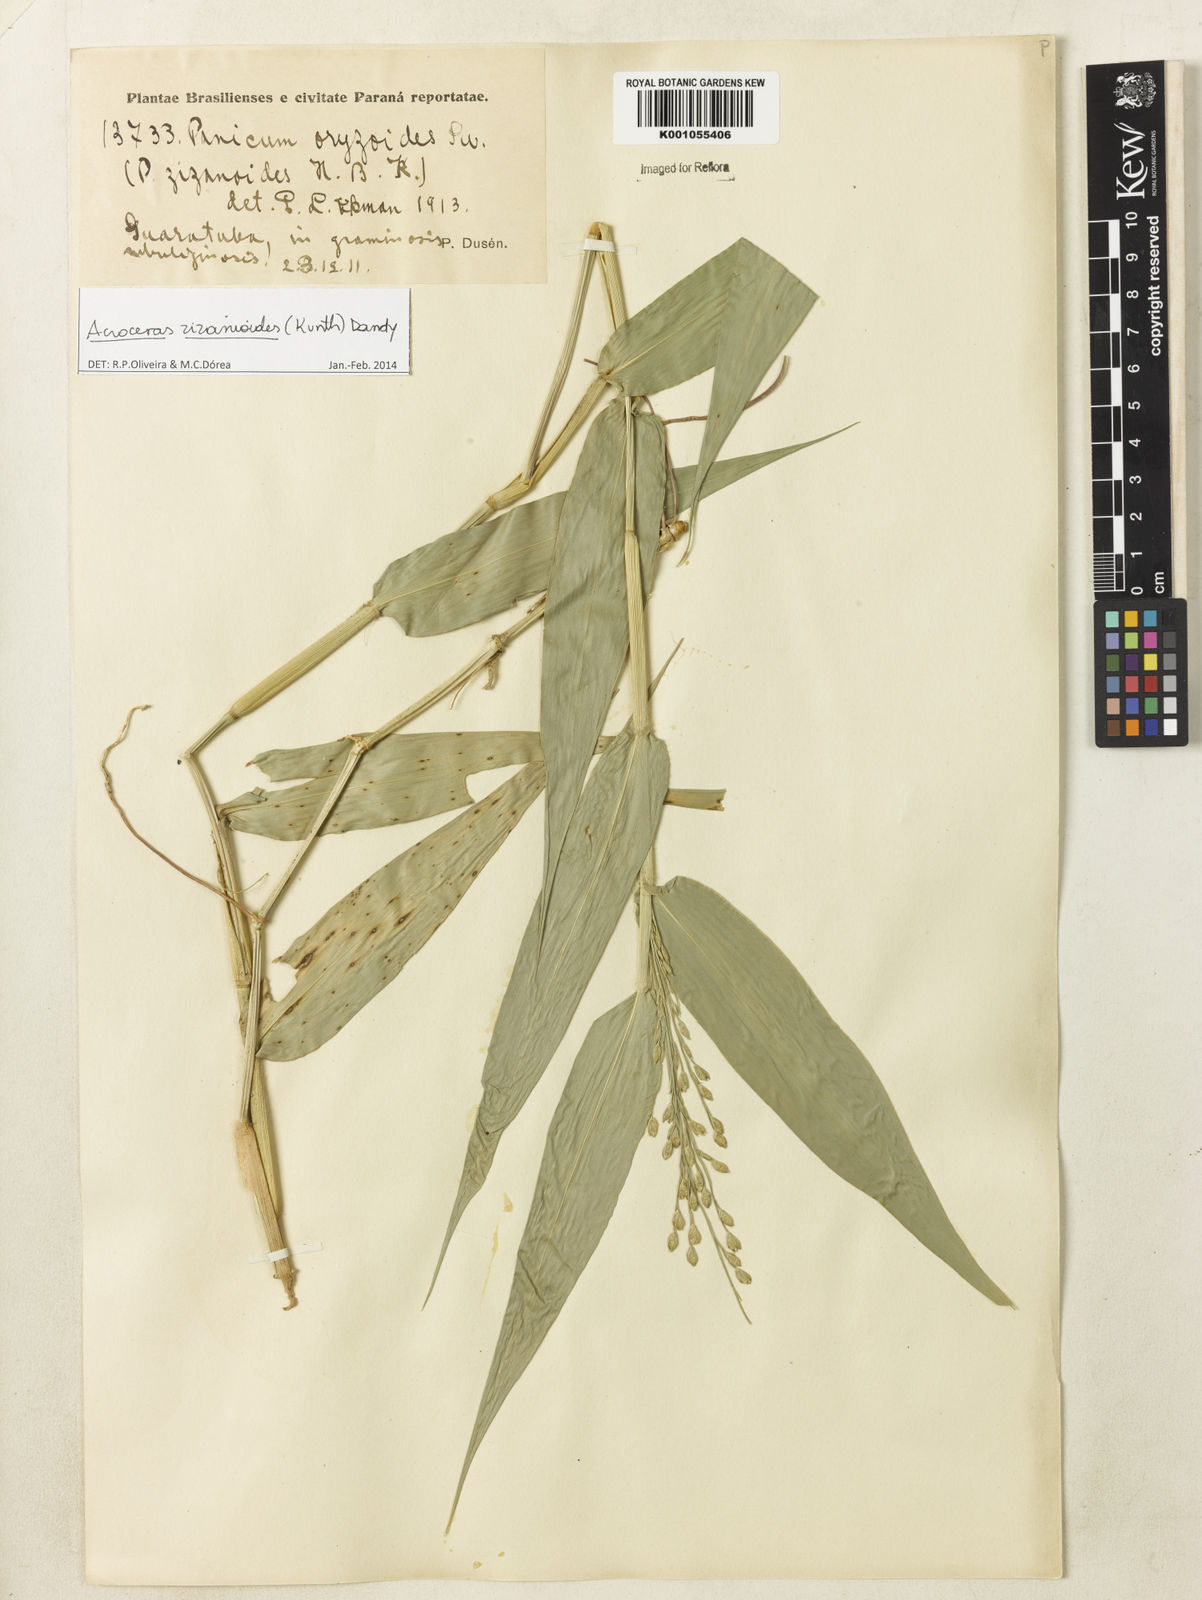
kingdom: Plantae
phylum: Tracheophyta
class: Liliopsida
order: Poales
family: Poaceae
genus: Acroceras
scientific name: Acroceras zizanioides
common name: Oat grass
